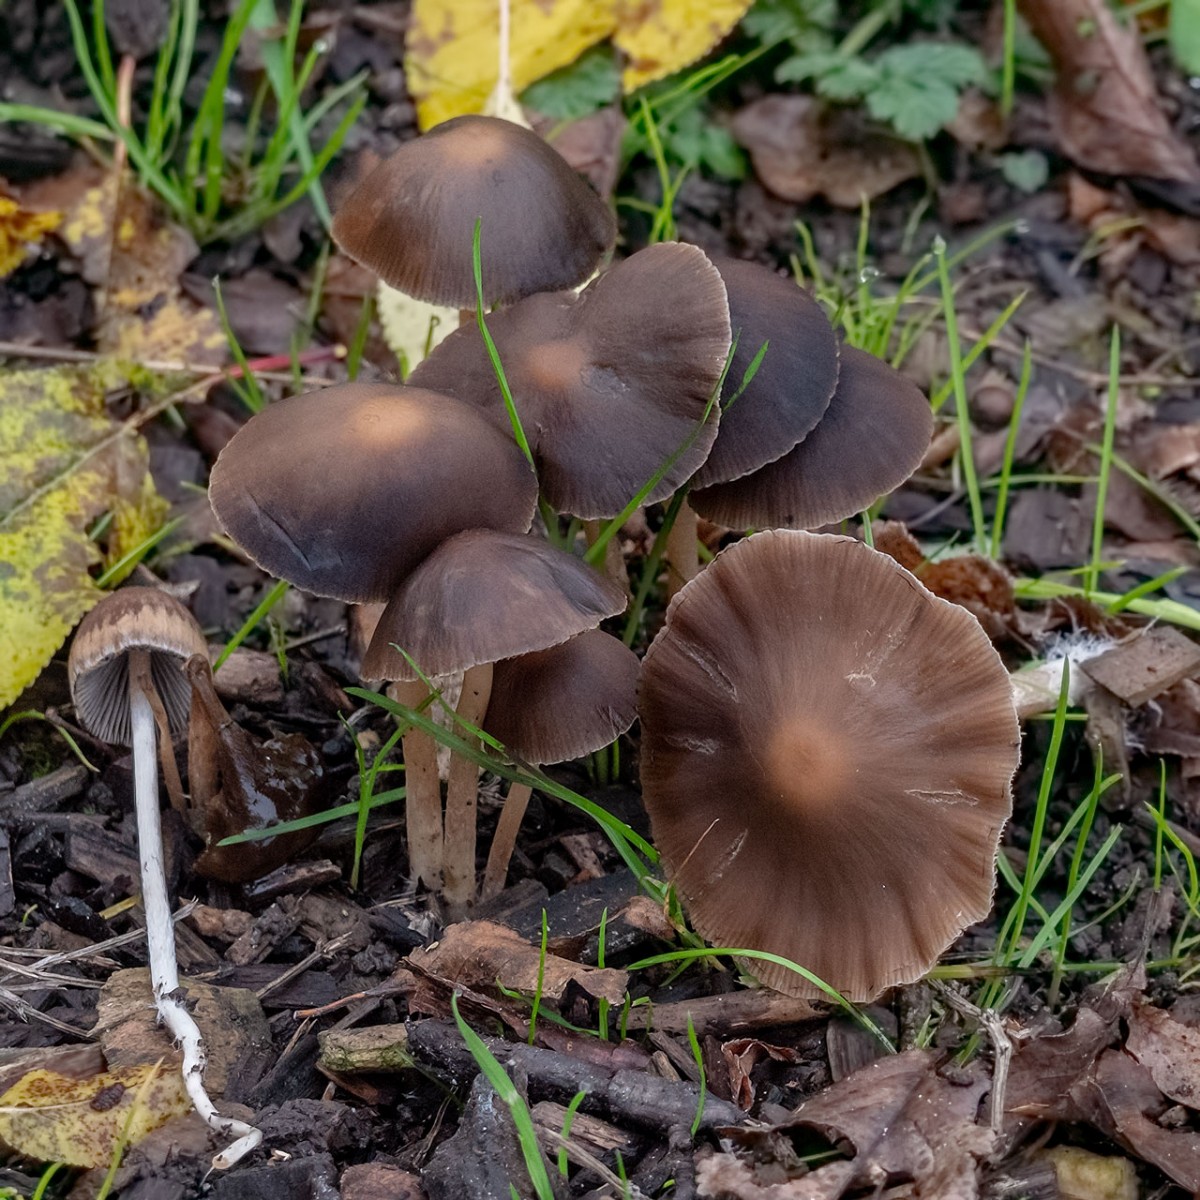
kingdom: Fungi
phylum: Basidiomycota
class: Agaricomycetes
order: Agaricales
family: Psathyrellaceae
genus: Psathyrella
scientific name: Psathyrella
